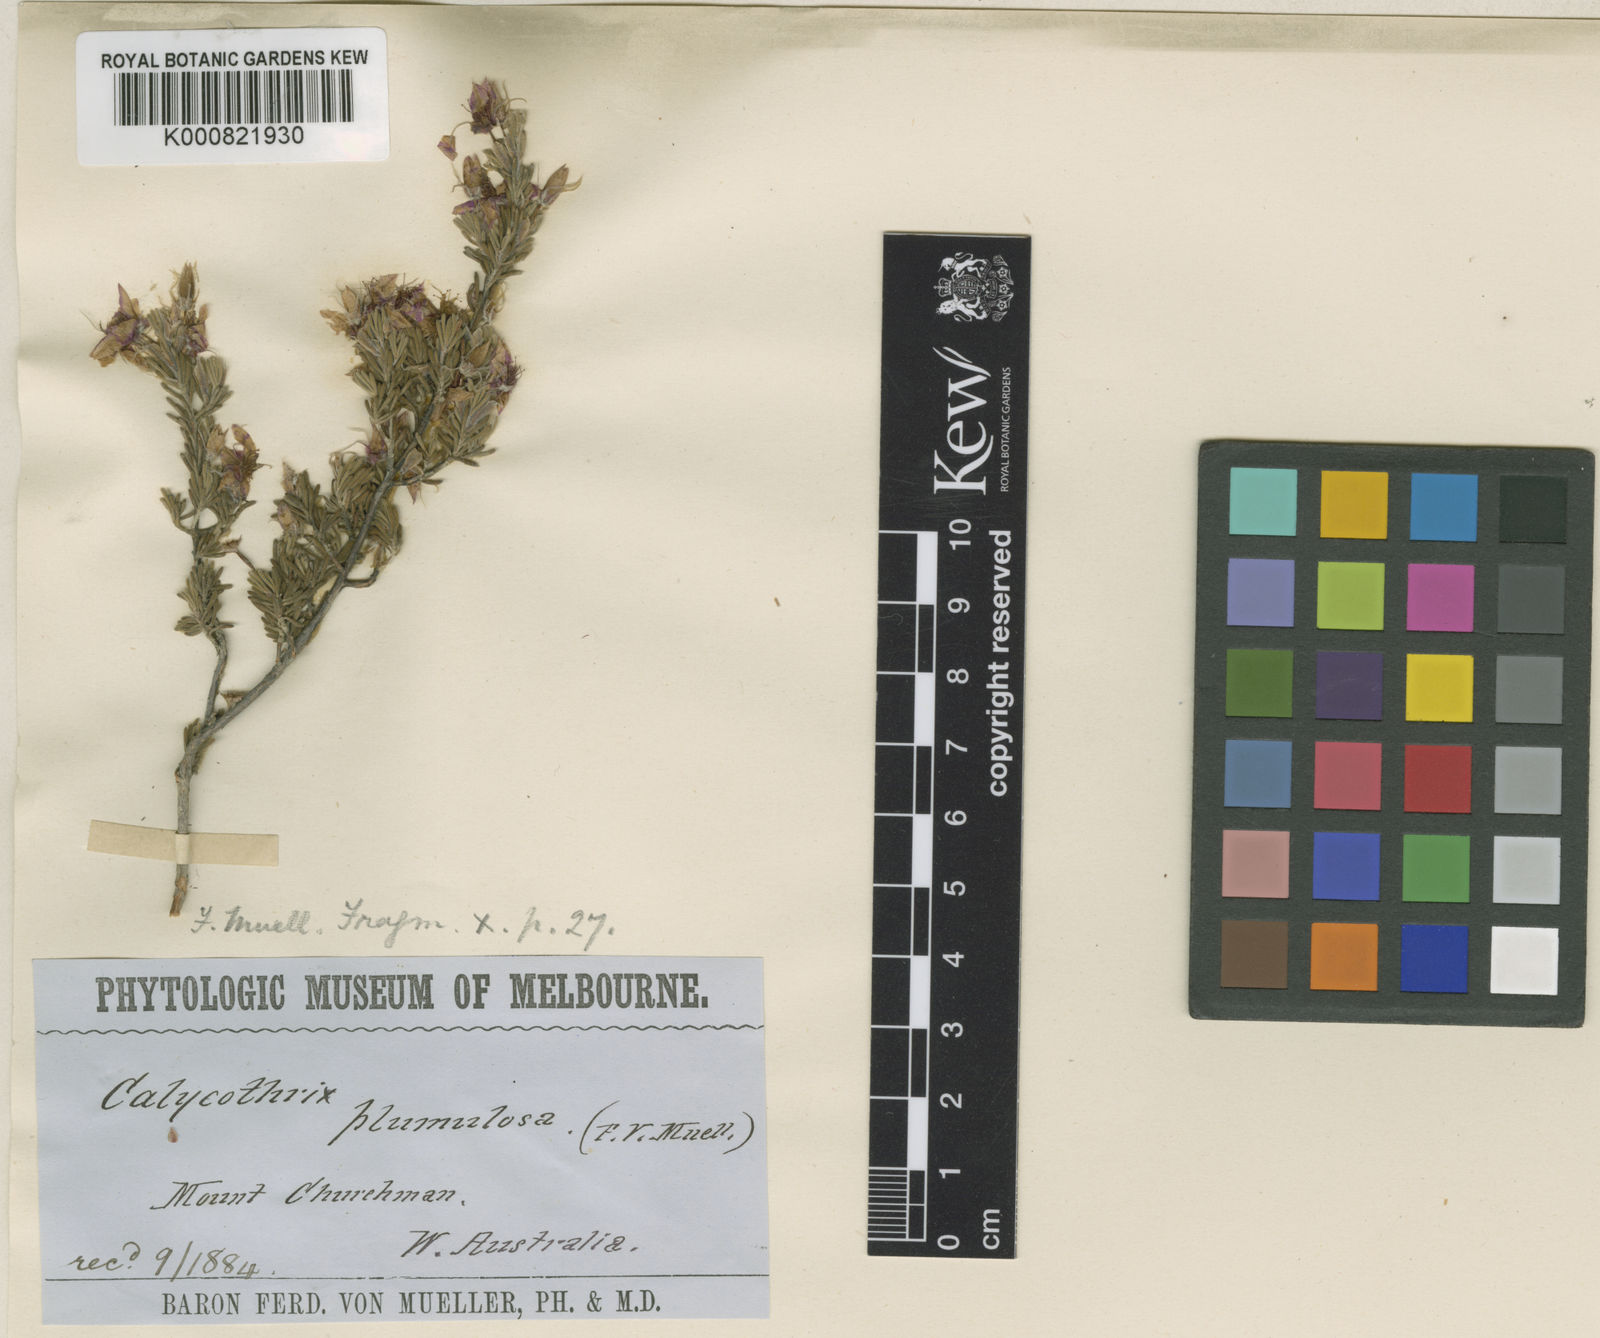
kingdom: Plantae
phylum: Tracheophyta
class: Magnoliopsida
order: Myrtales
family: Myrtaceae
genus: Calytrix
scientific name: Calytrix plumulosa
